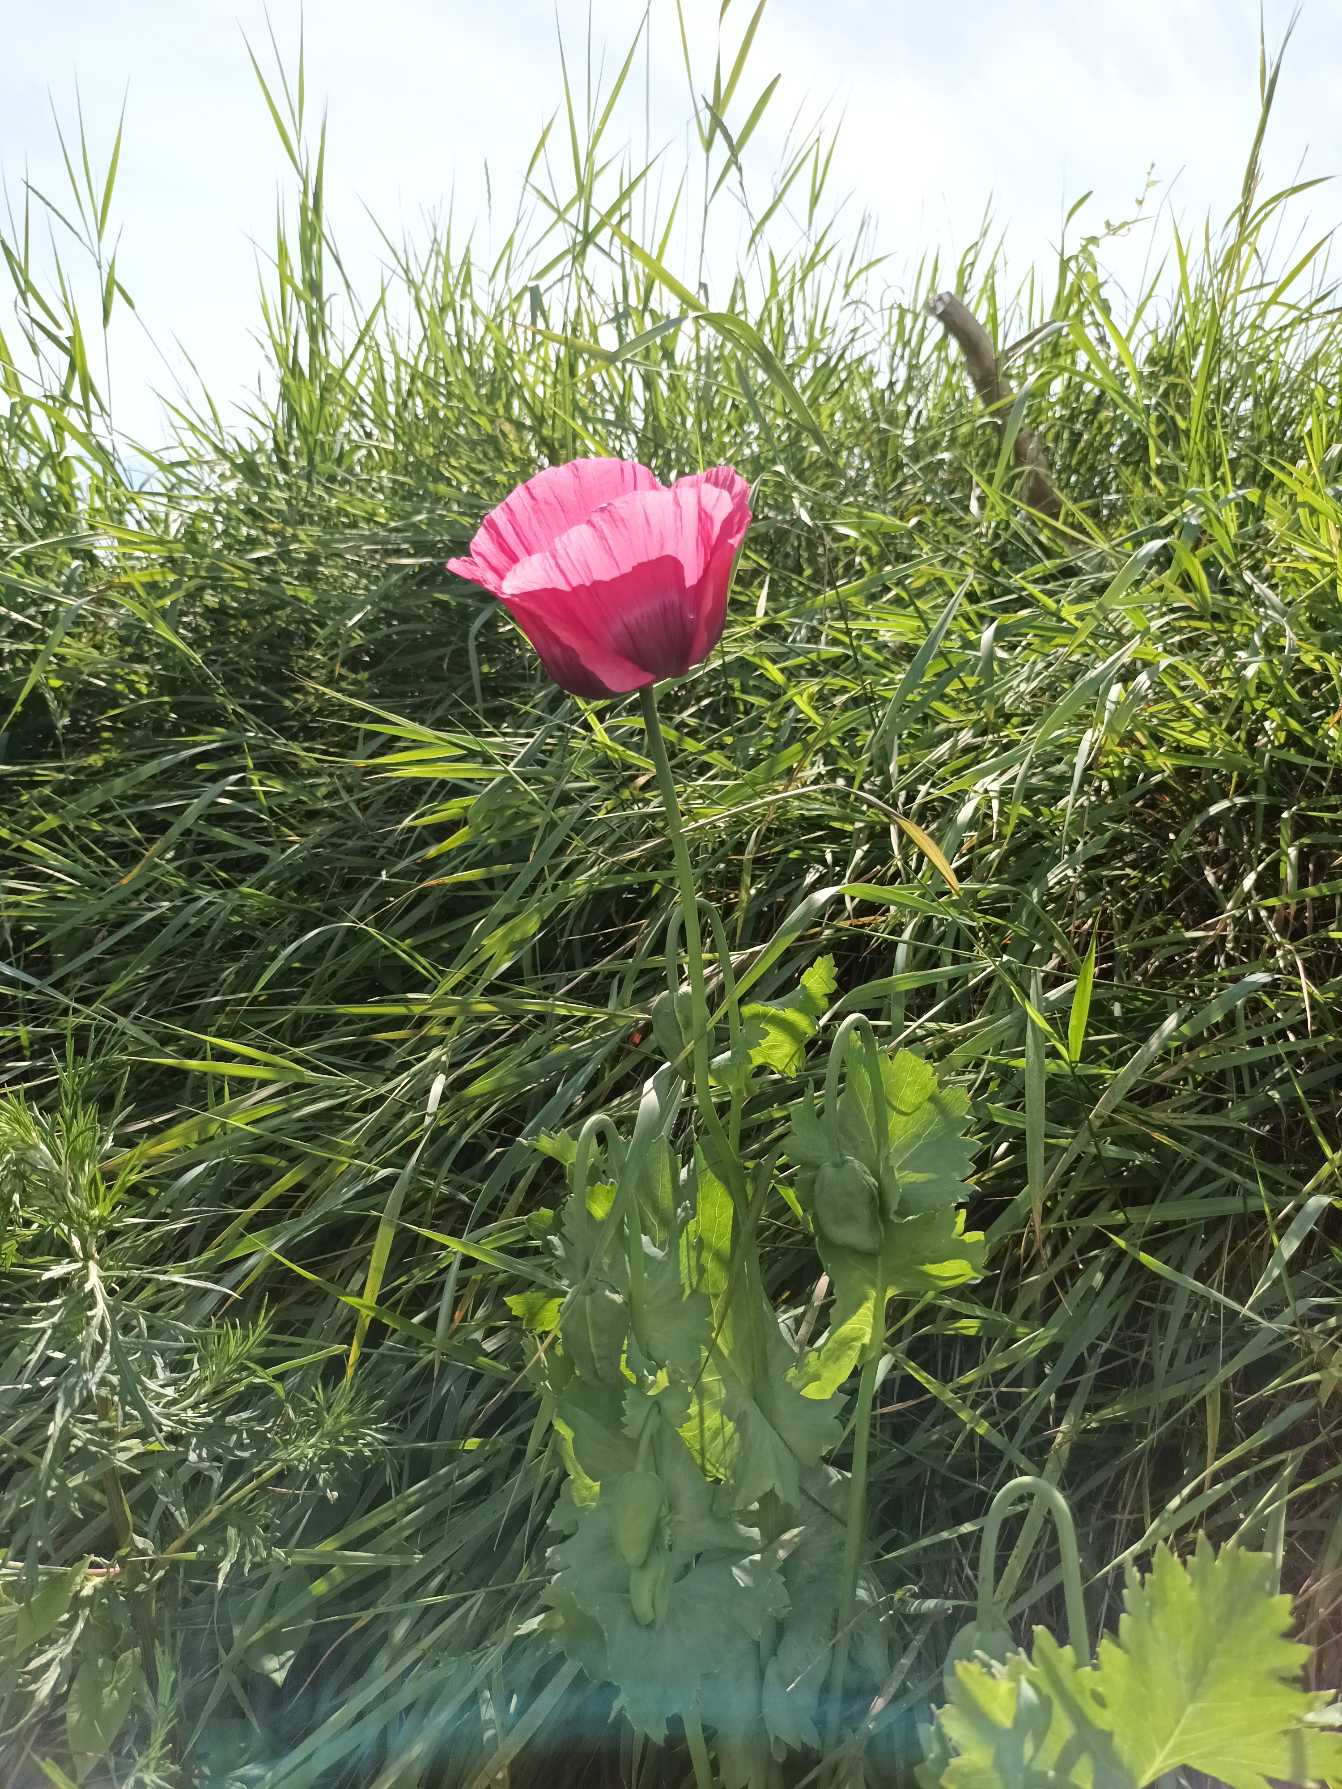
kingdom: Plantae
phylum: Tracheophyta
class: Magnoliopsida
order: Ranunculales
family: Papaveraceae
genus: Papaver
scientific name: Papaver somniferum
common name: Opium-valmue
